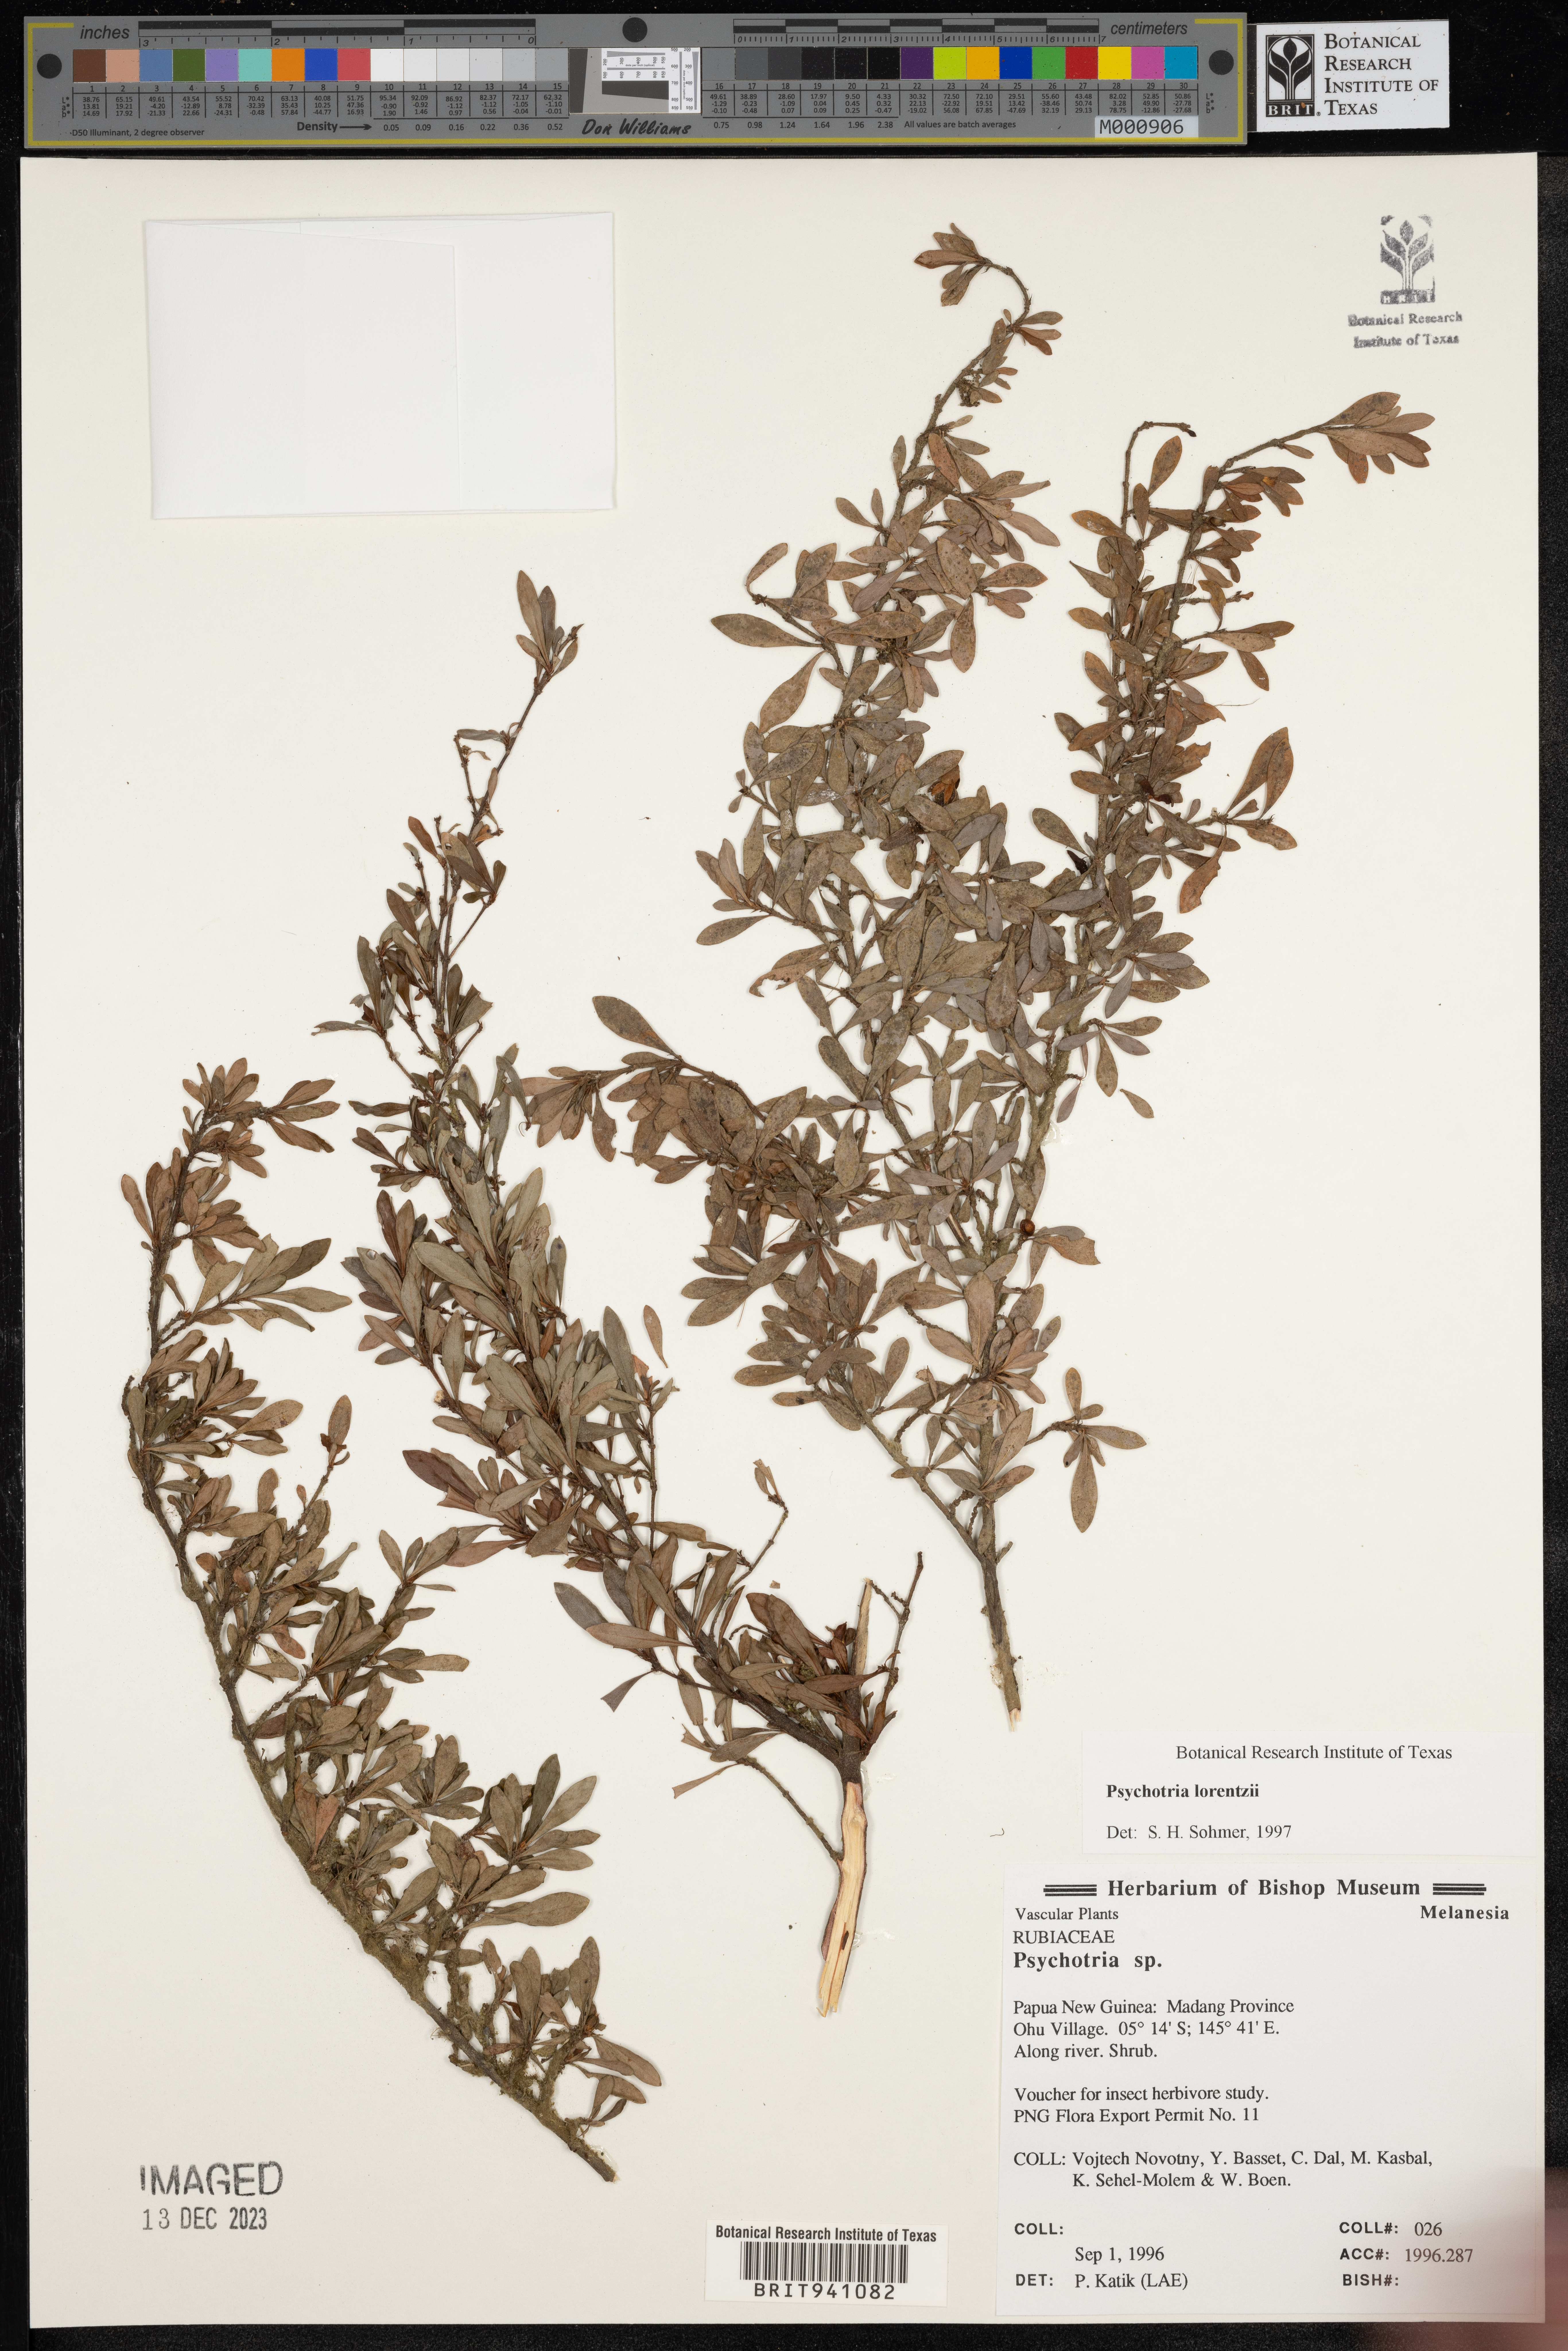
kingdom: Plantae
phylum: Tracheophyta
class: Magnoliopsida
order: Gentianales
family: Rubiaceae
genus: Psychotria
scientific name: Psychotria
